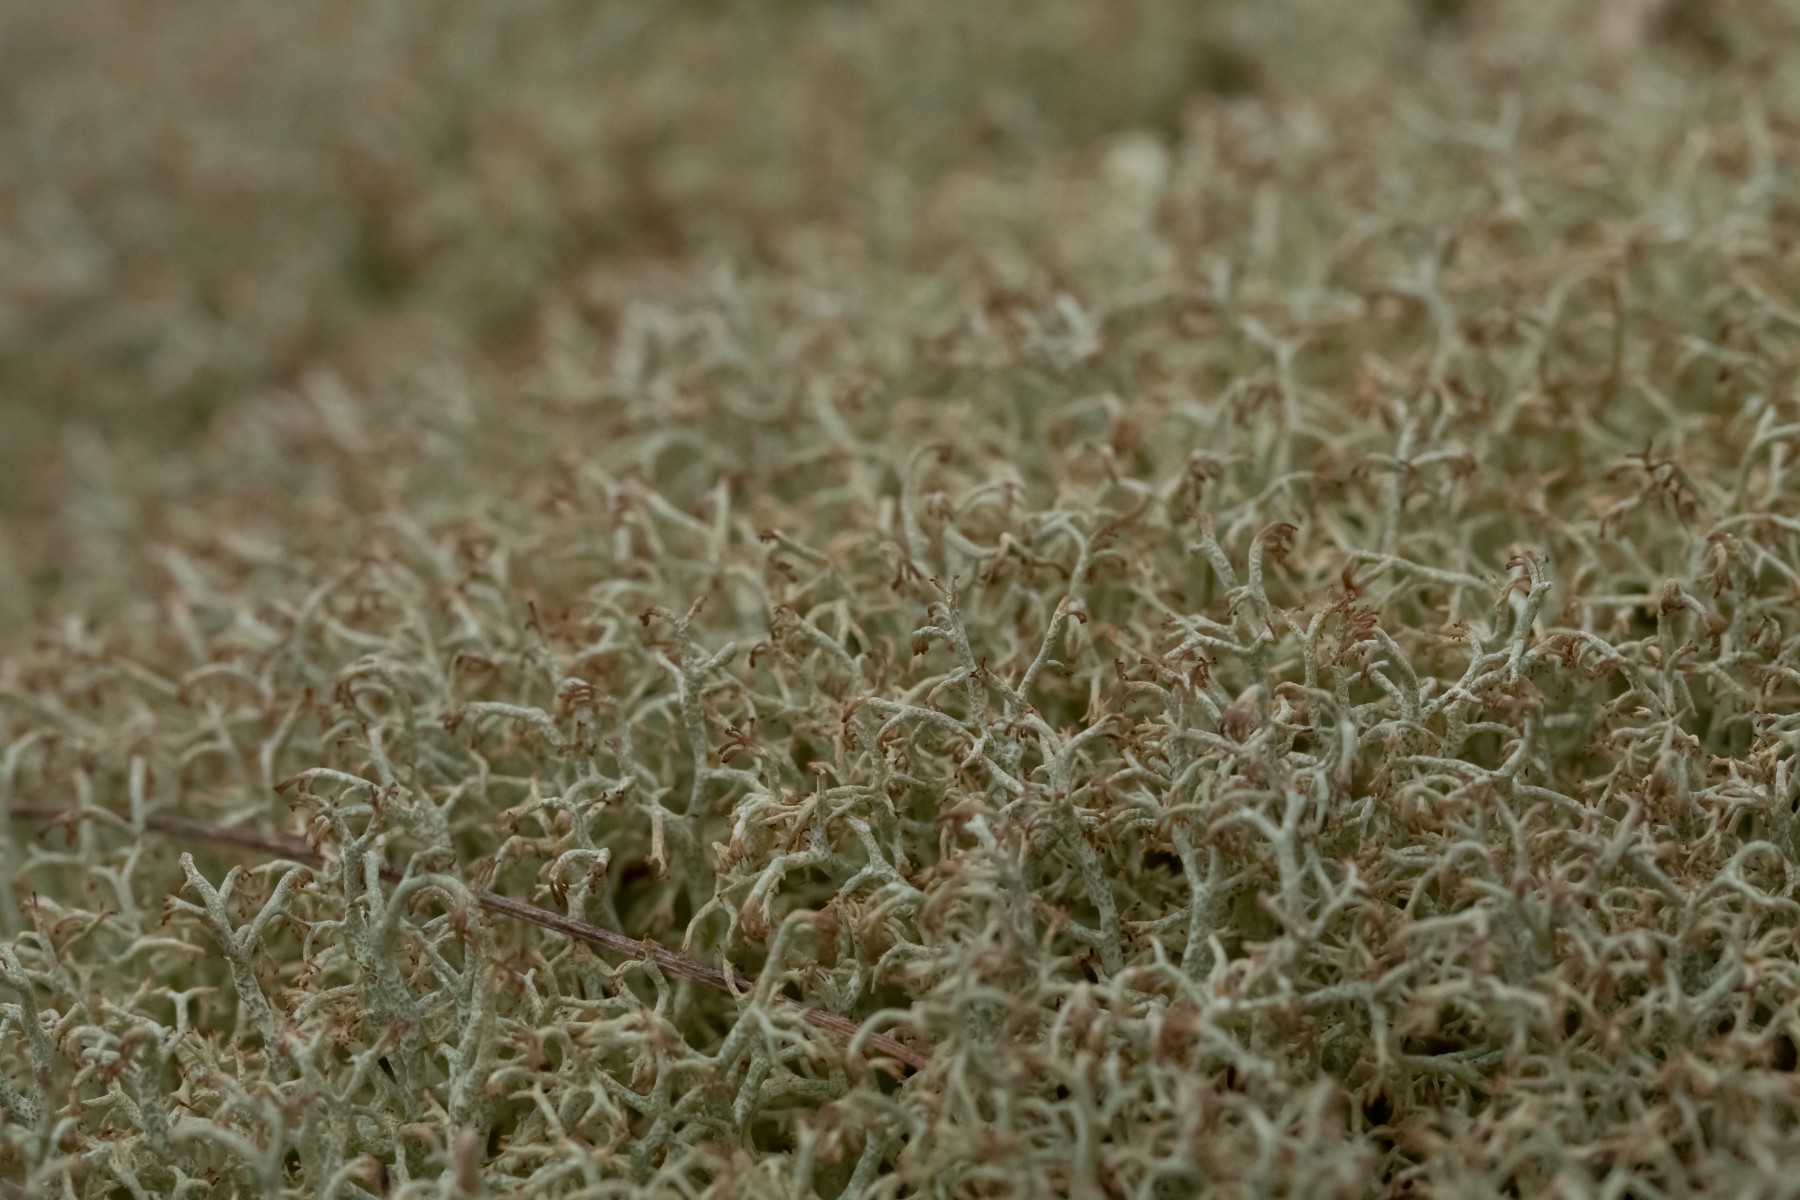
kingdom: Fungi
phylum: Ascomycota
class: Lecanoromycetes
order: Lecanorales
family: Cladoniaceae
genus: Cladonia
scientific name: Cladonia ciliata
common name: spinkel rensdyrlav
